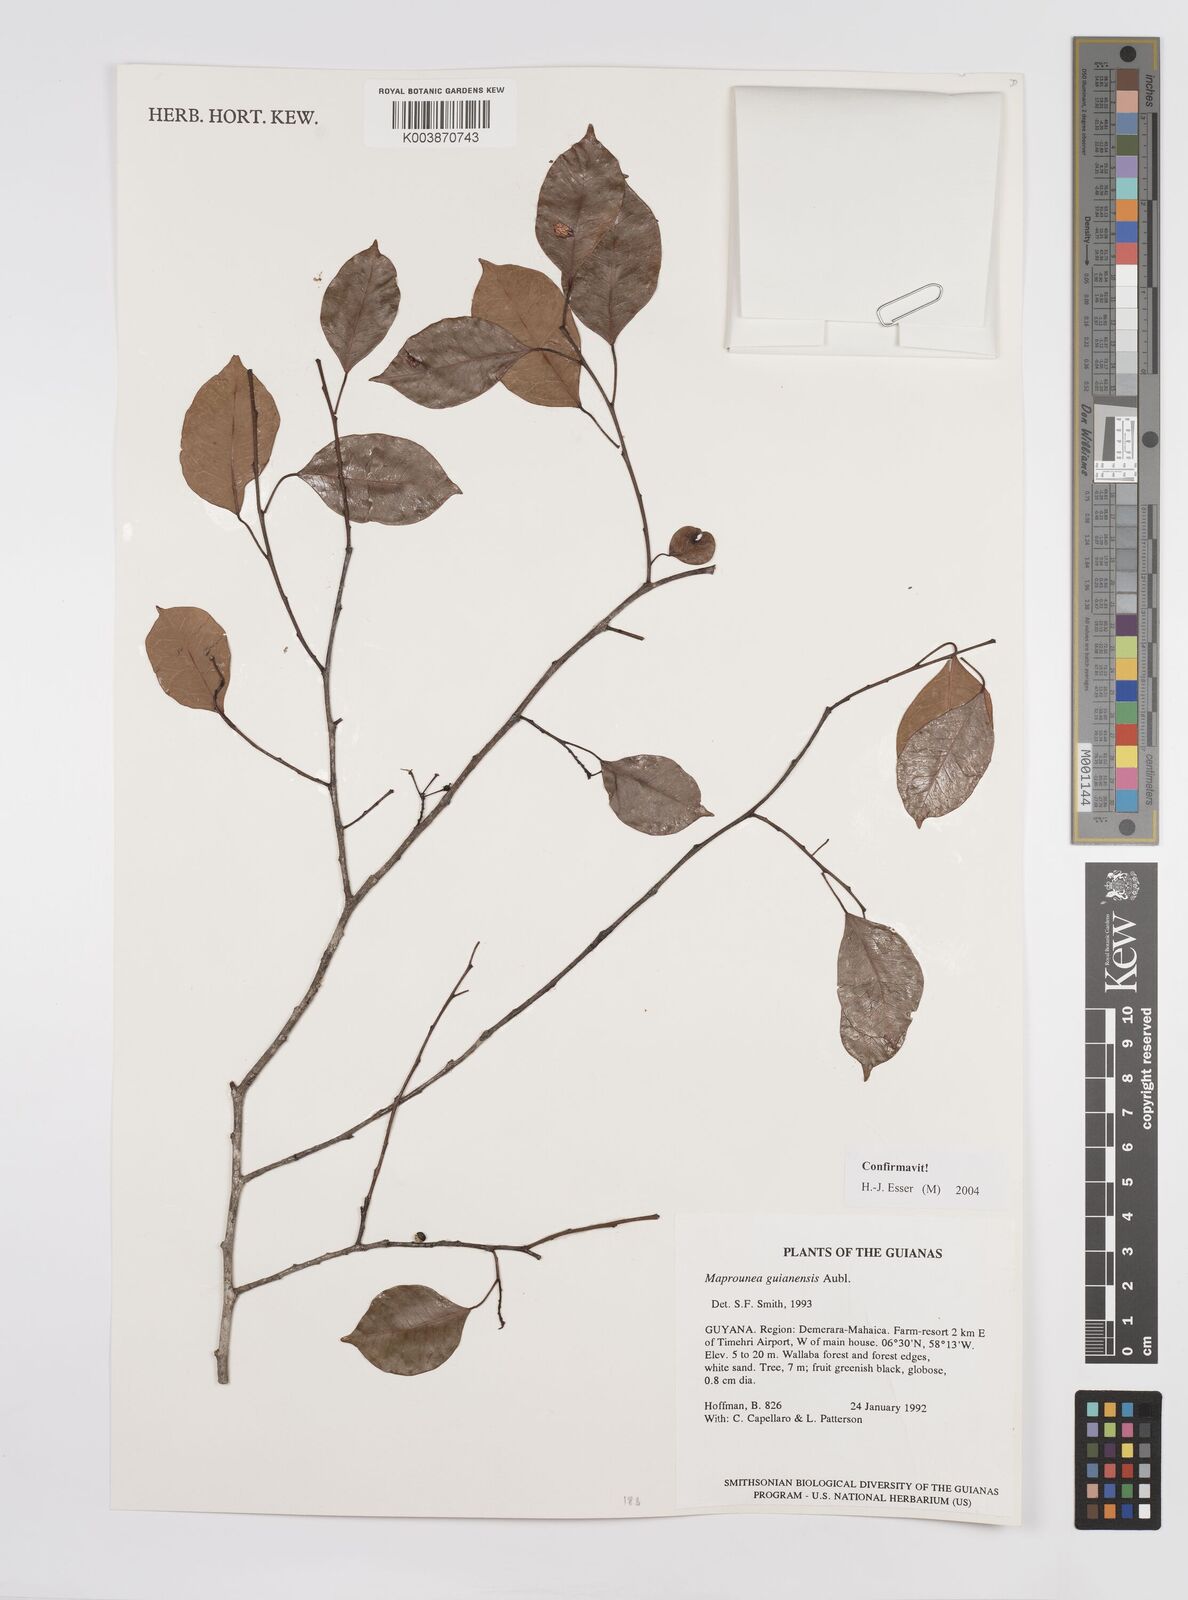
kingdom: Plantae
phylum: Tracheophyta
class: Magnoliopsida
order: Malpighiales
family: Euphorbiaceae
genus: Maprounea
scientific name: Maprounea guianensis
